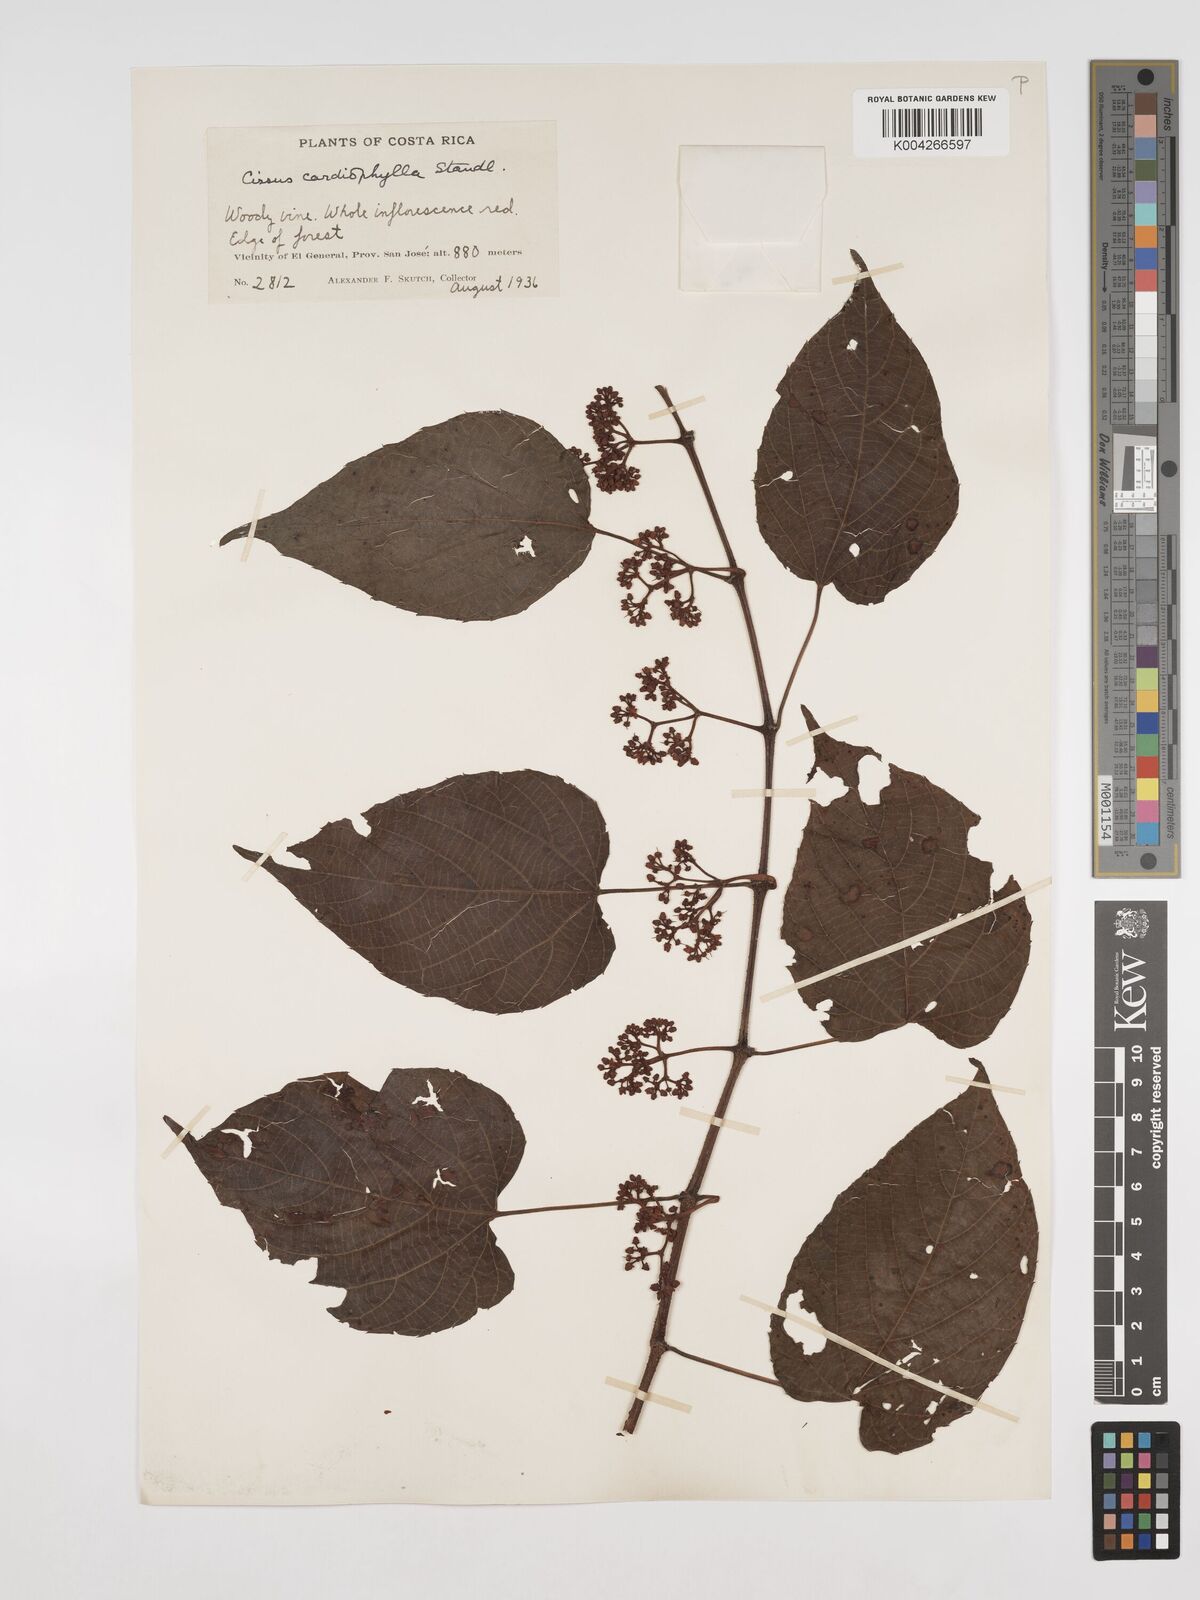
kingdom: Plantae
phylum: Tracheophyta
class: Magnoliopsida
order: Vitales
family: Vitaceae
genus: Cissus
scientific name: Cissus
